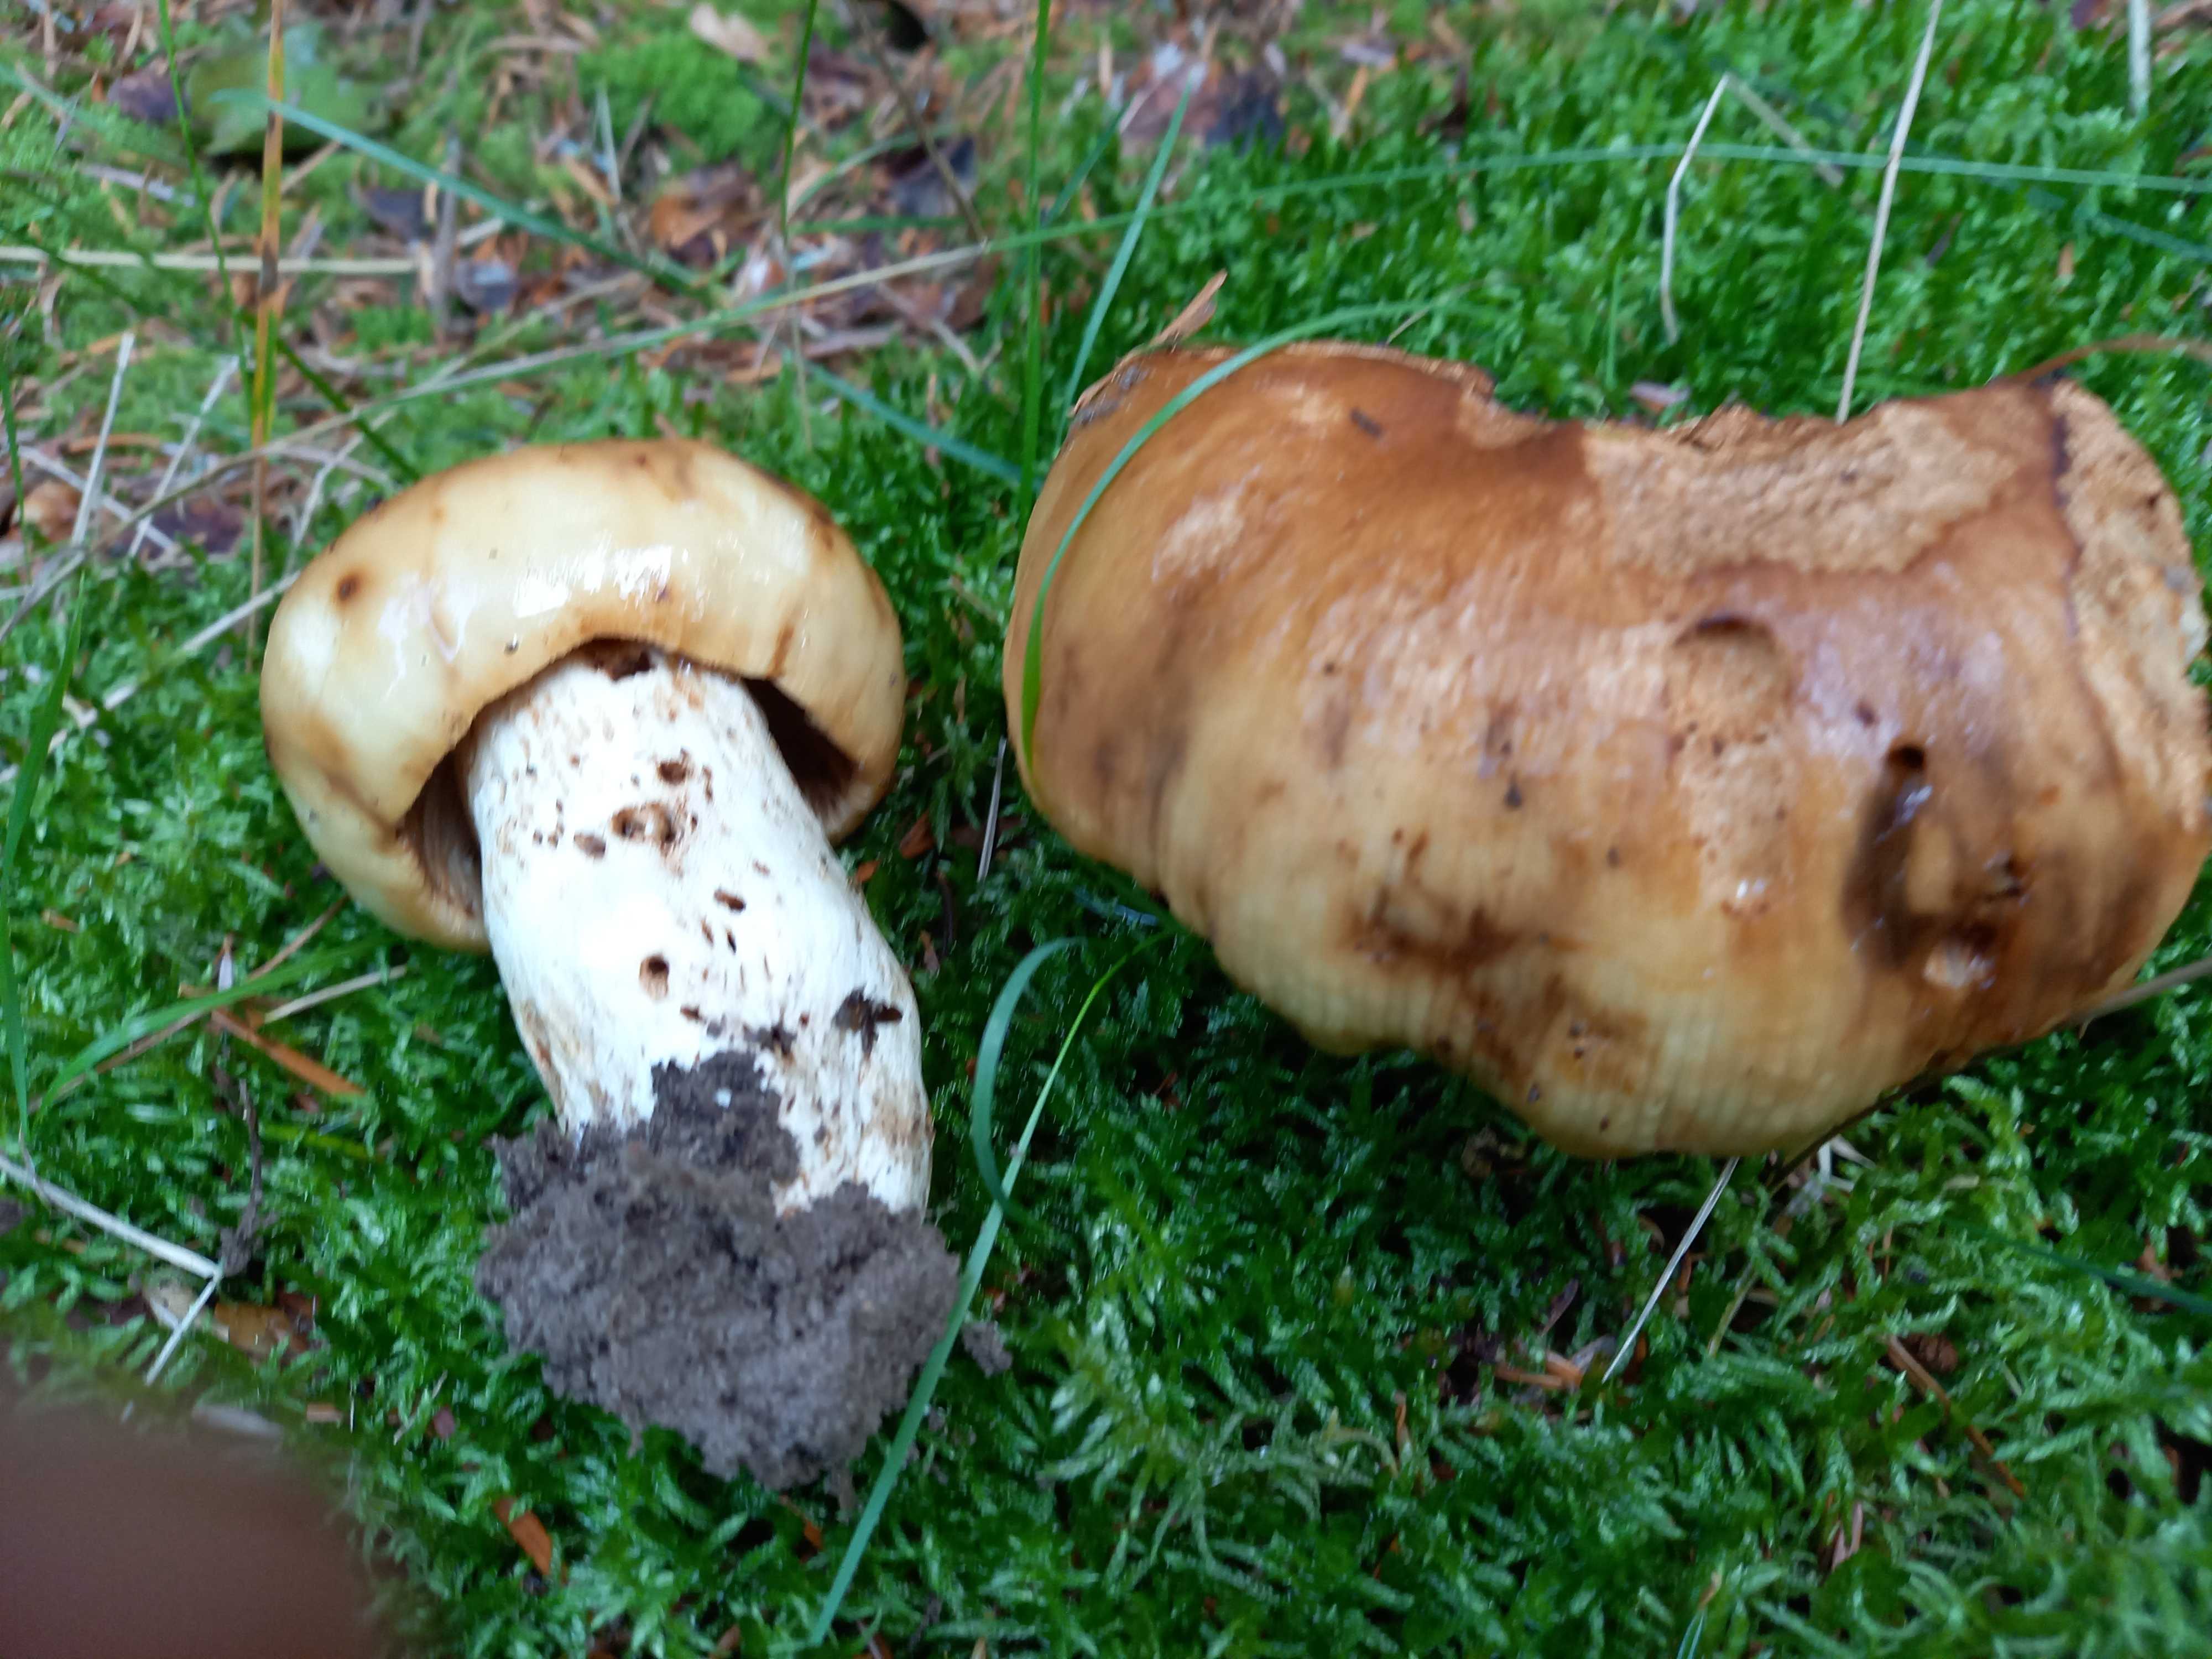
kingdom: Fungi
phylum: Basidiomycota
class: Agaricomycetes
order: Russulales
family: Russulaceae
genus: Russula
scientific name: Russula foetens
